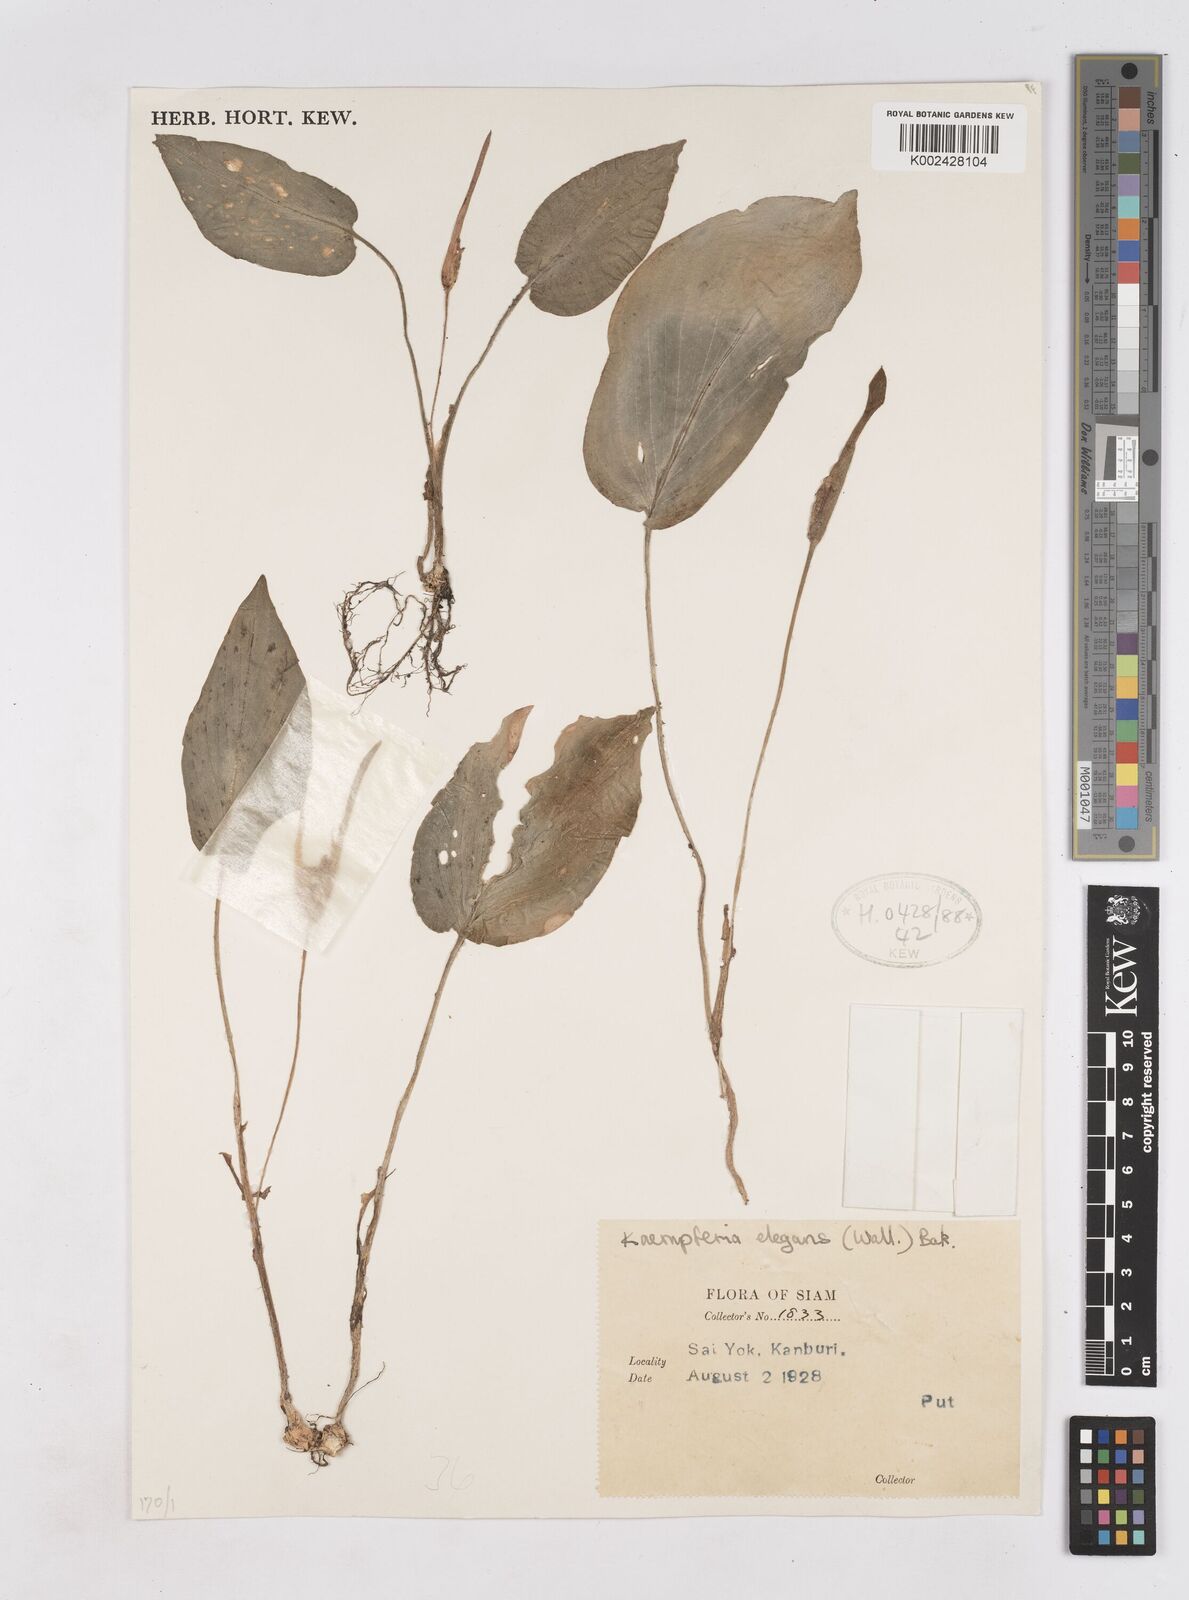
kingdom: Plantae
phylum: Tracheophyta
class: Liliopsida
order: Zingiberales
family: Zingiberaceae
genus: Kaempferia
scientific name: Kaempferia elegans
